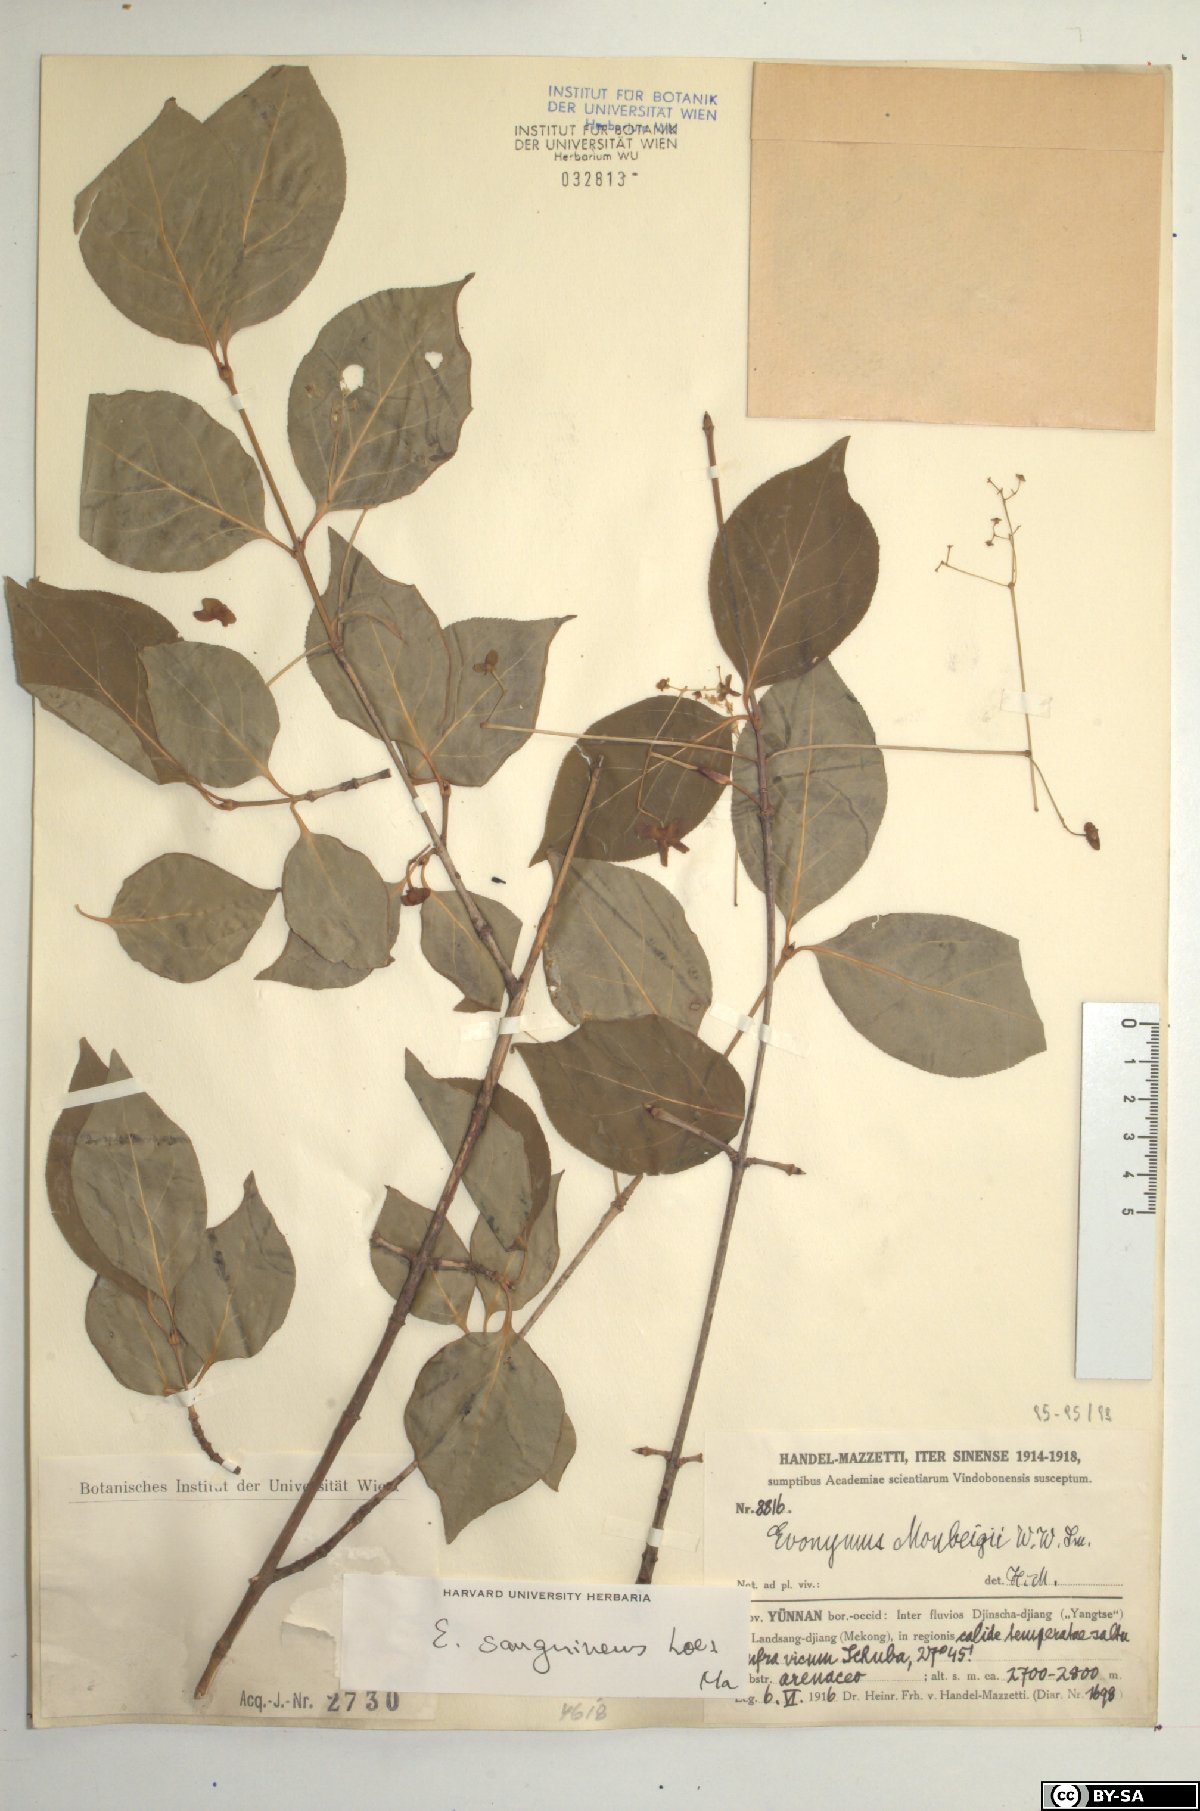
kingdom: Plantae
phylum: Tracheophyta
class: Magnoliopsida
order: Celastrales
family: Celastraceae
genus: Euonymus
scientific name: Euonymus sanguineus
